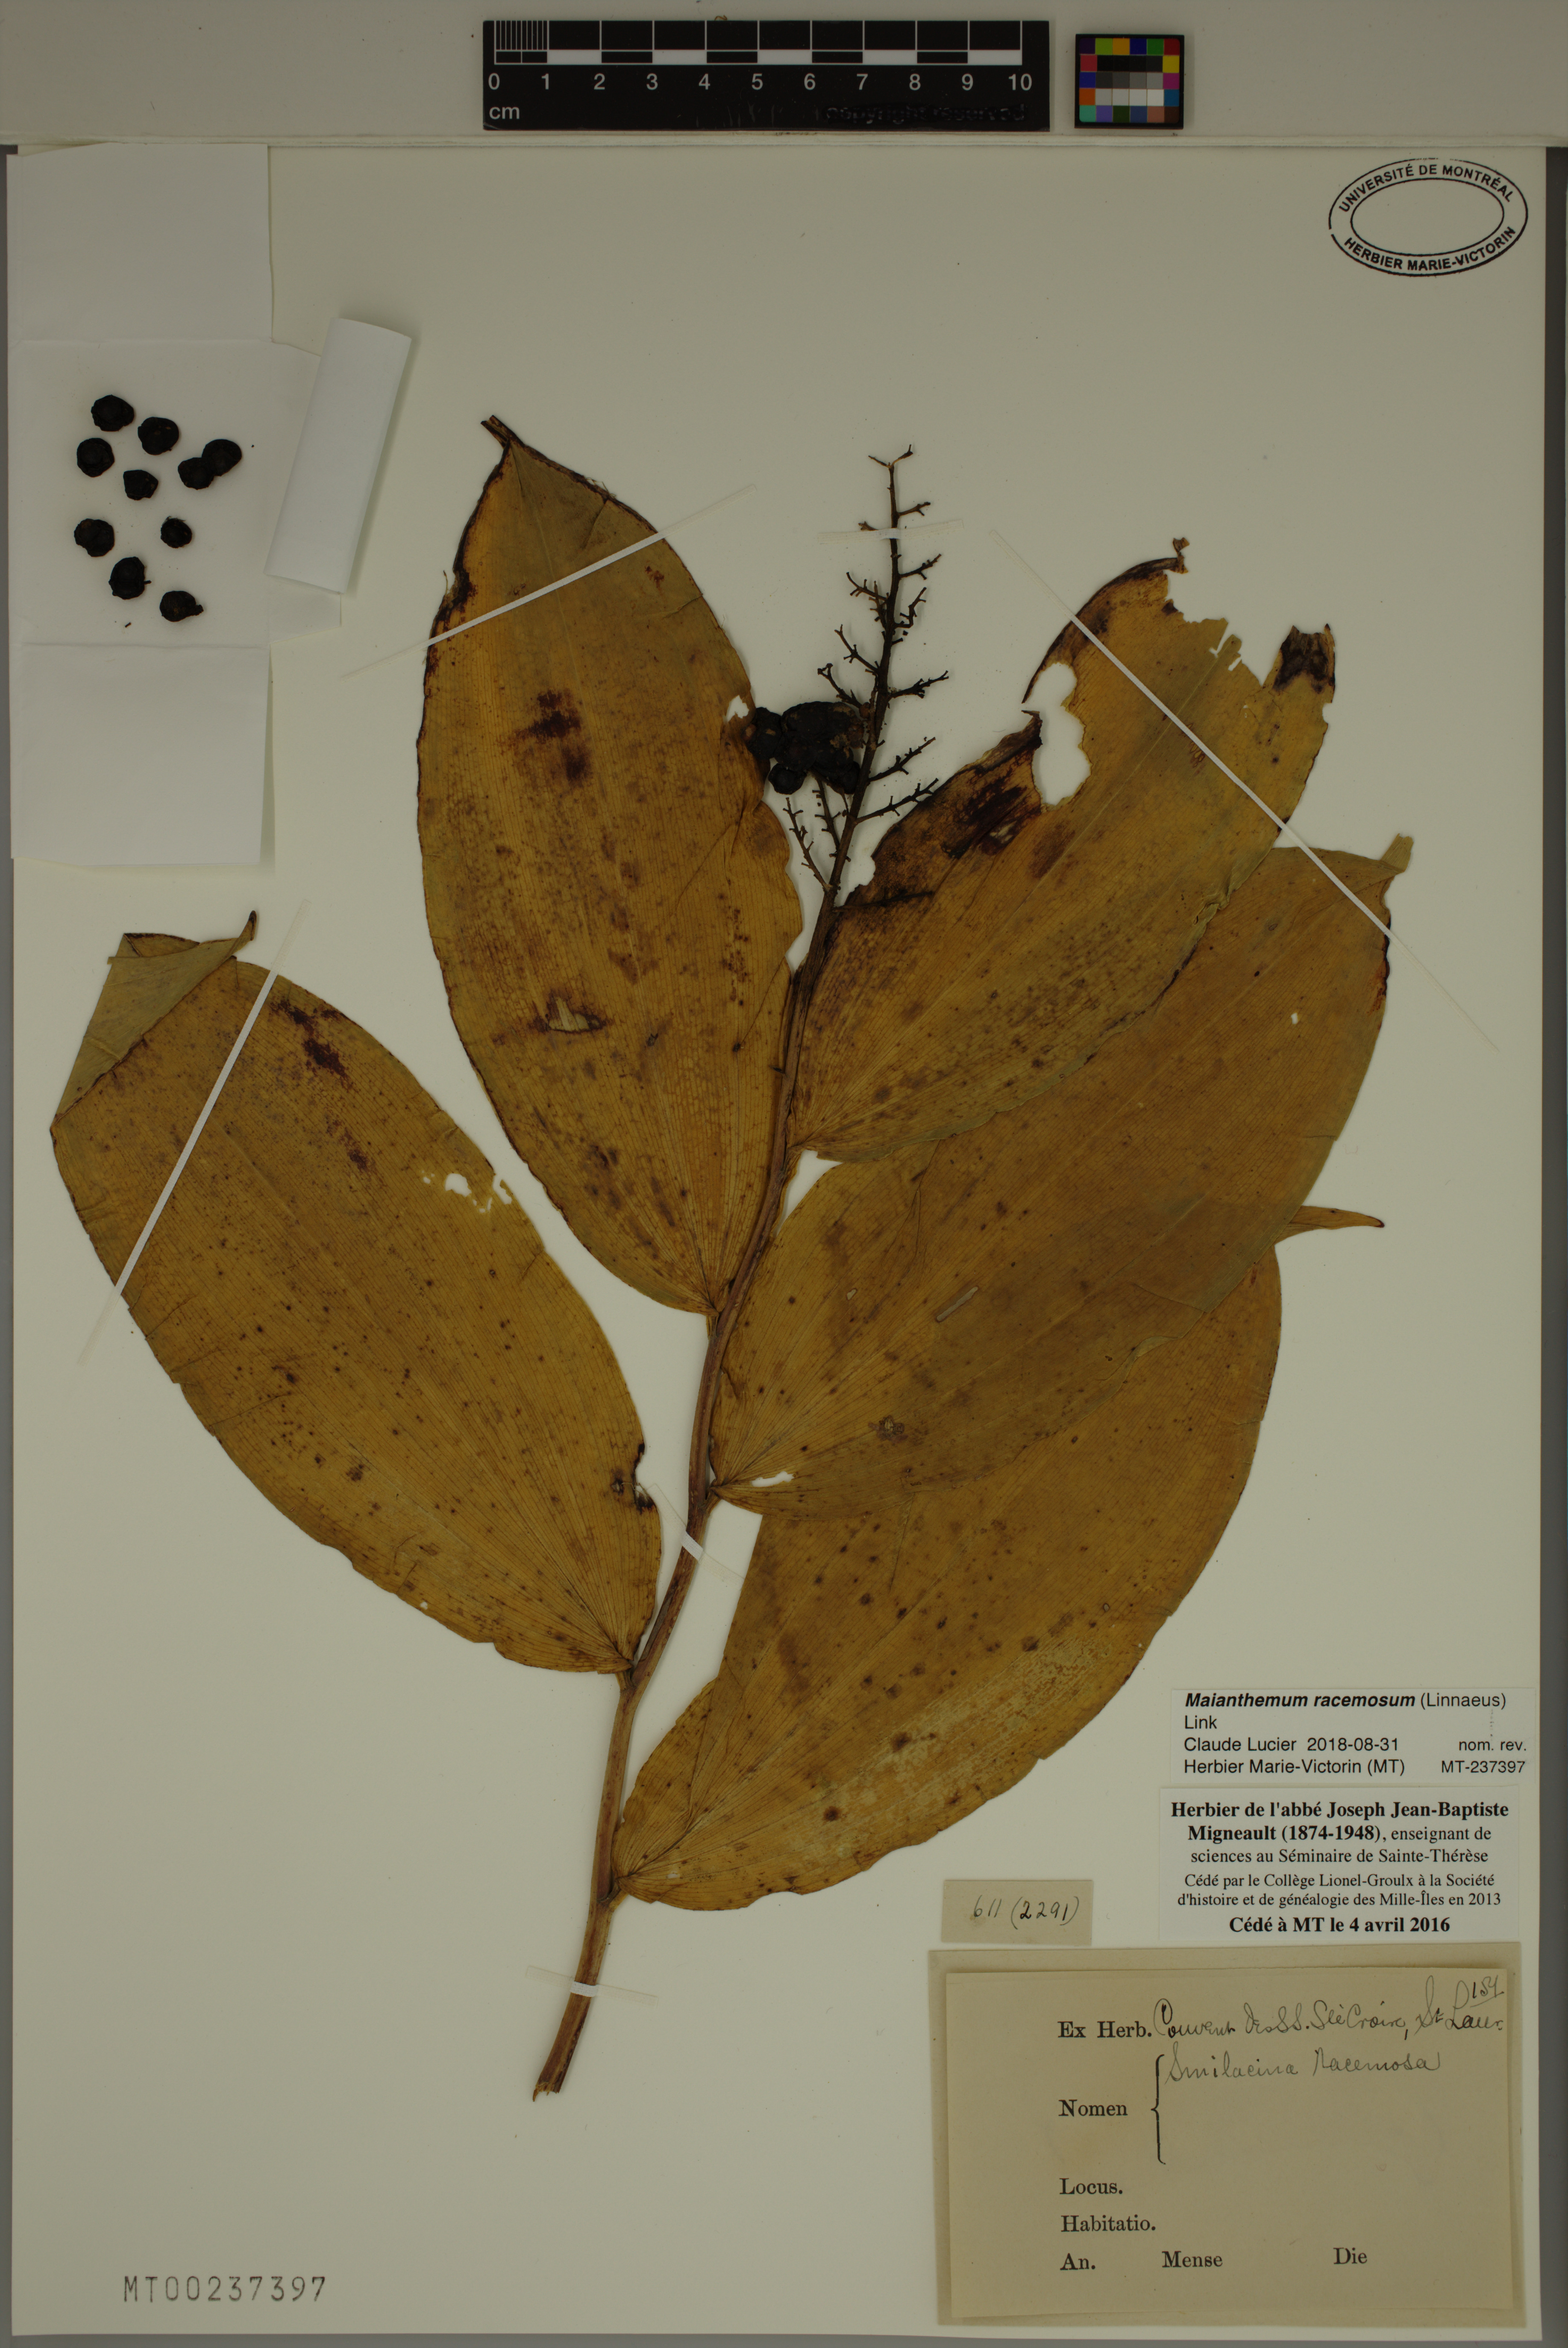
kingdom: Plantae
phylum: Tracheophyta
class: Liliopsida
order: Asparagales
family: Asparagaceae
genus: Maianthemum
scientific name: Maianthemum racemosum
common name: False spikenard
